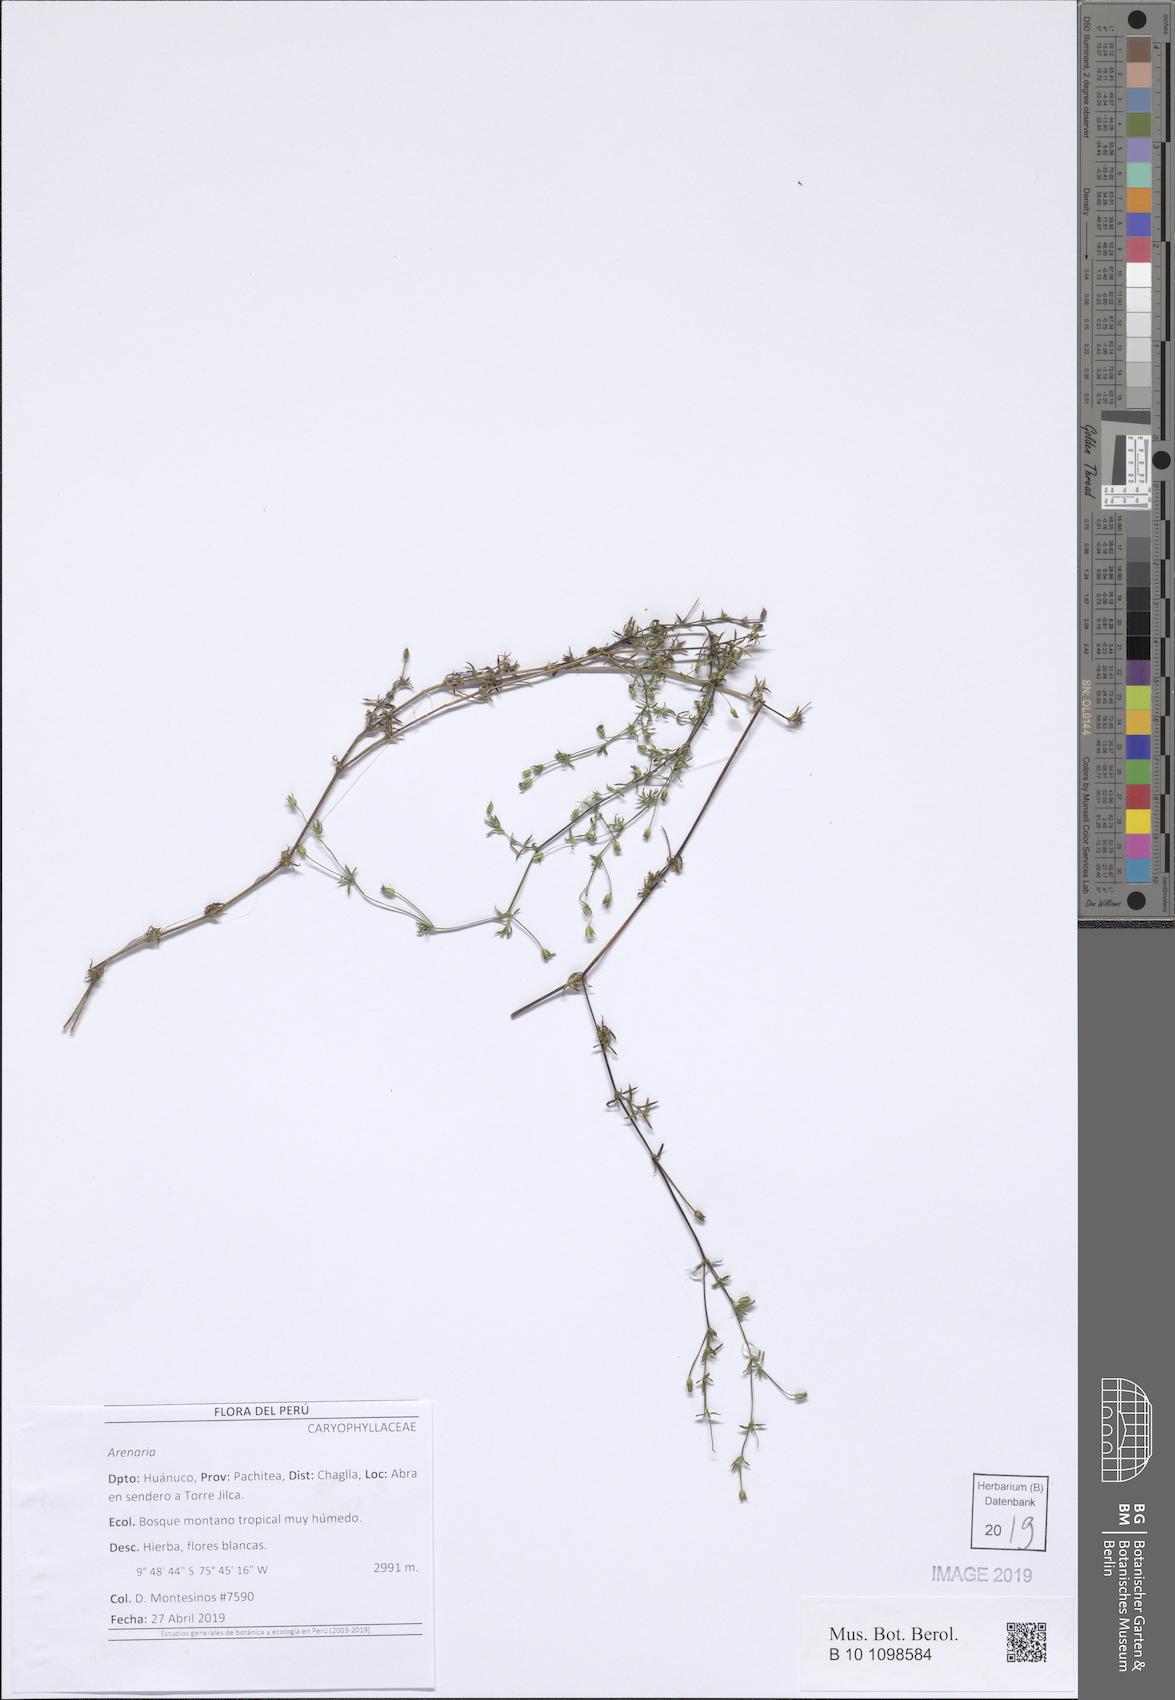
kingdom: Plantae
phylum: Tracheophyta
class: Magnoliopsida
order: Caryophyllales
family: Caryophyllaceae
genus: Arenaria
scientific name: Arenaria
